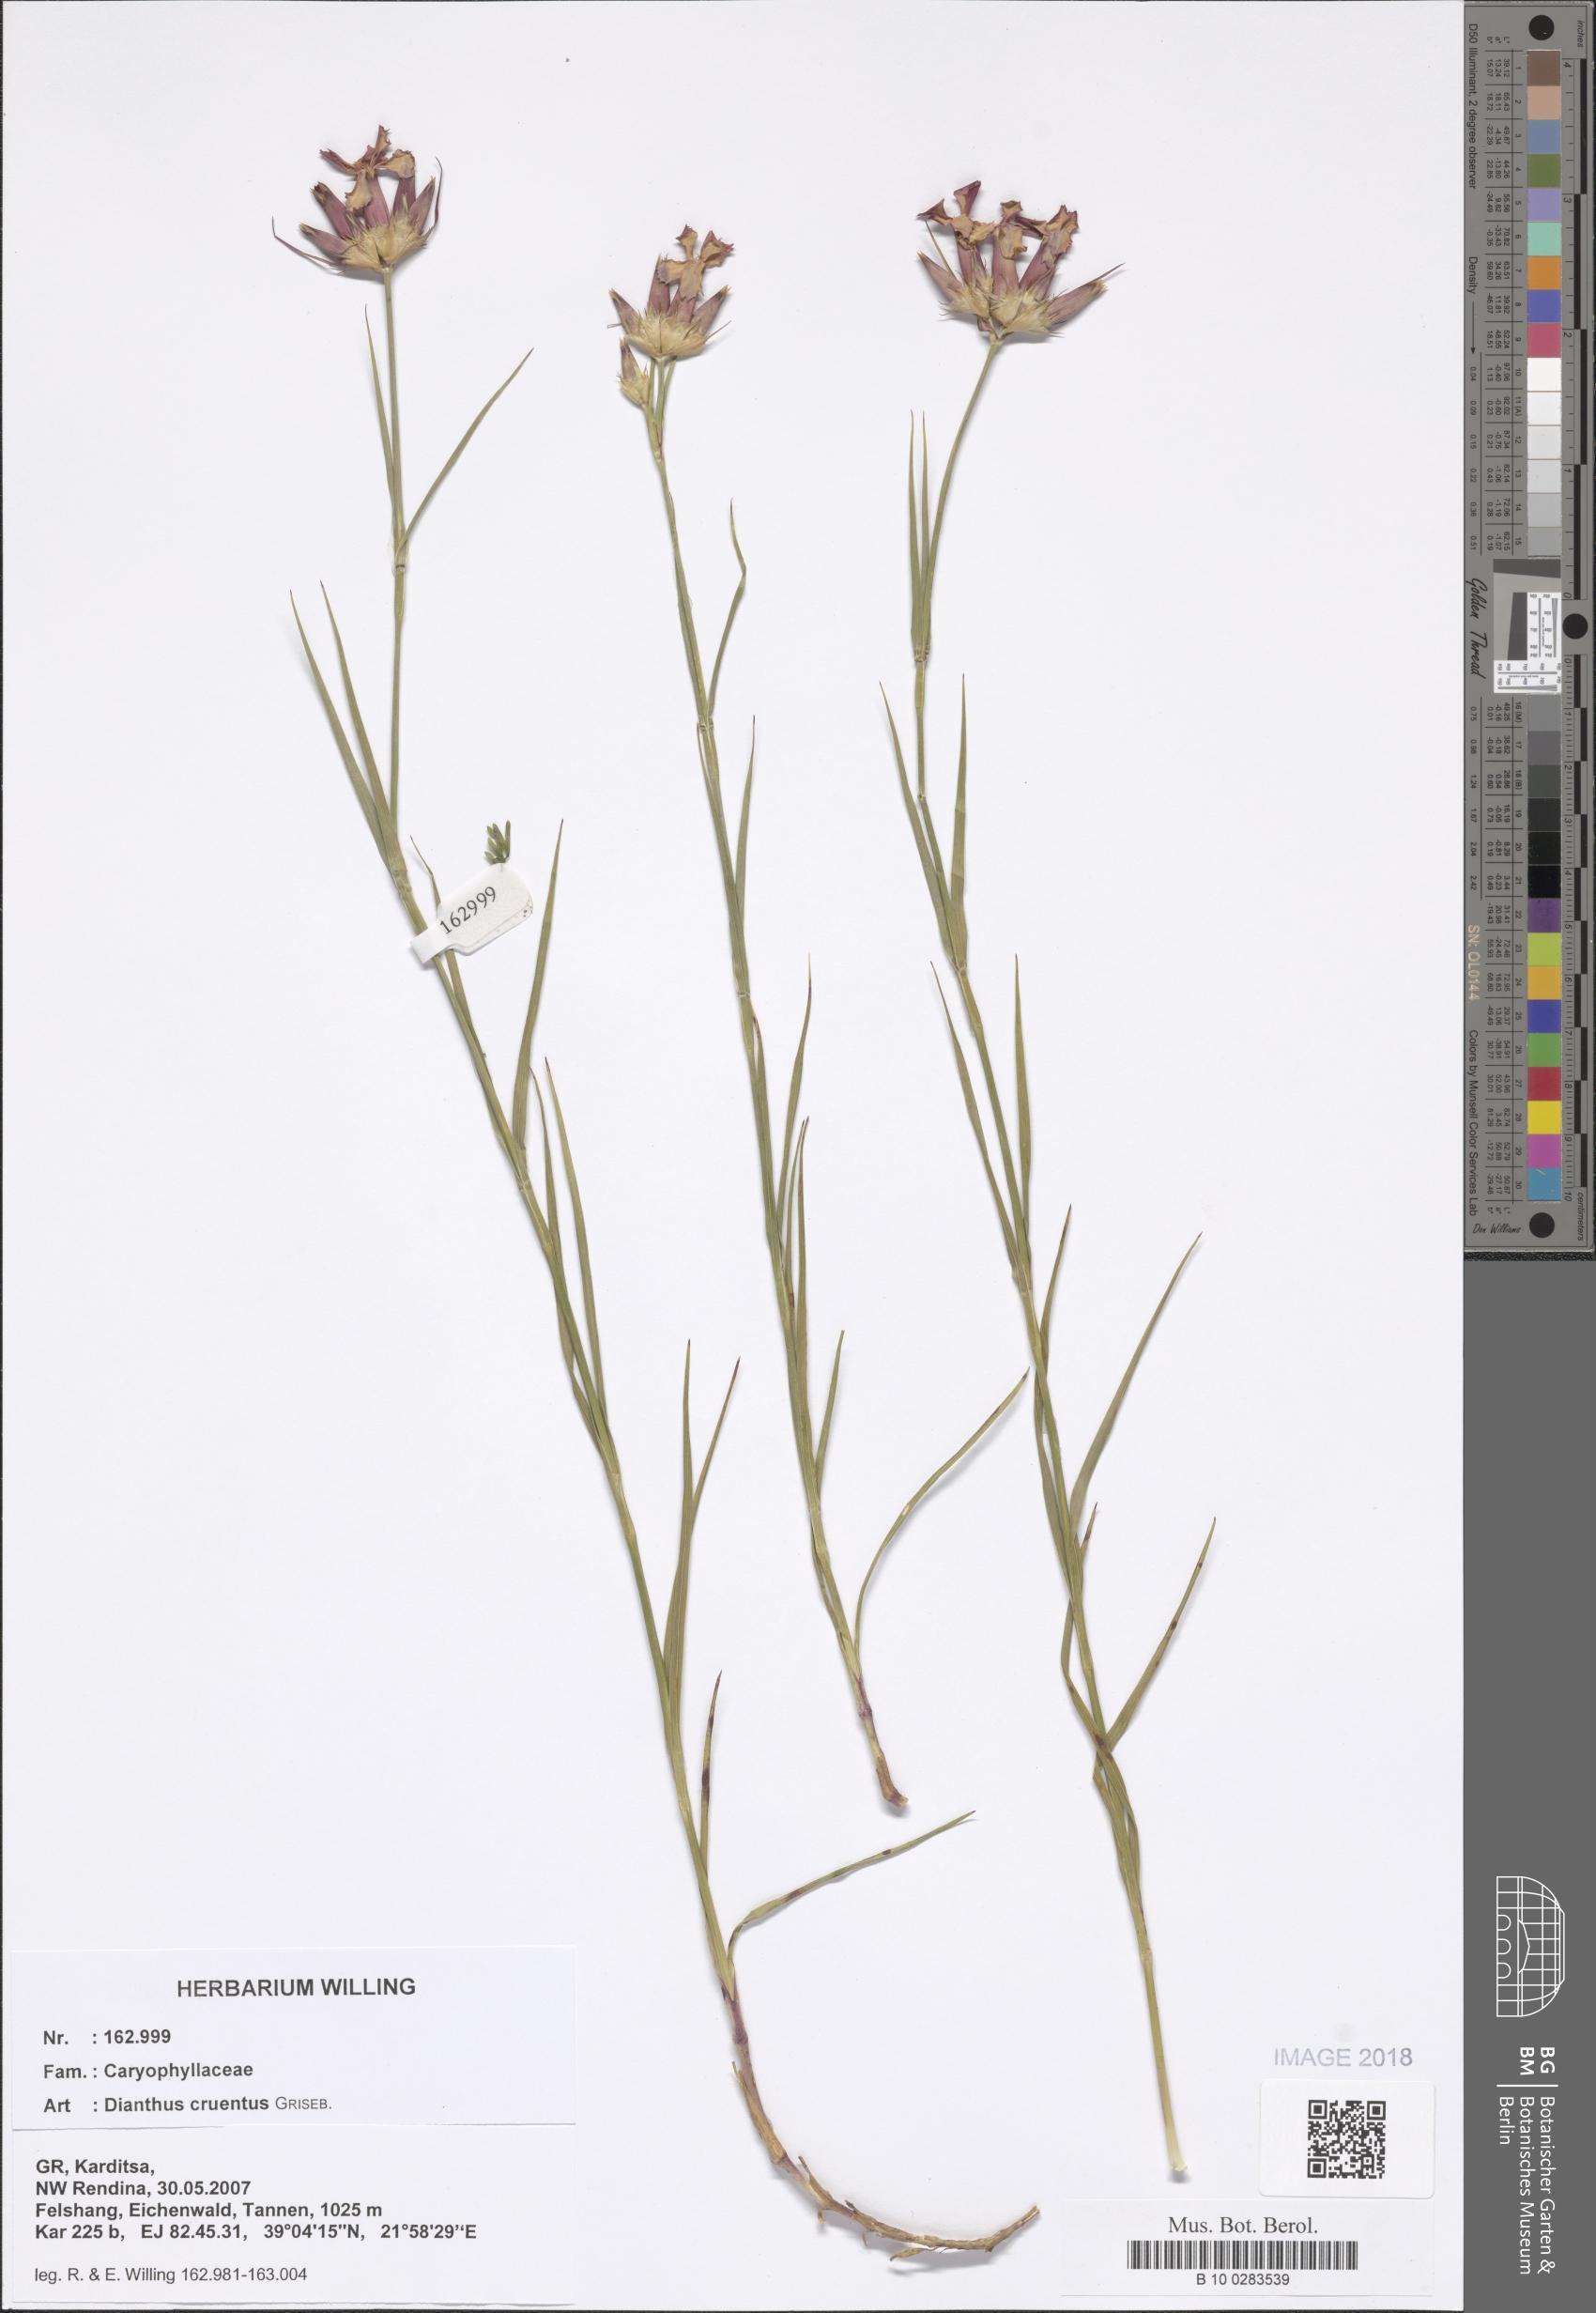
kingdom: Plantae
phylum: Tracheophyta
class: Magnoliopsida
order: Caryophyllales
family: Caryophyllaceae
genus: Dianthus
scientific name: Dianthus cruentus
